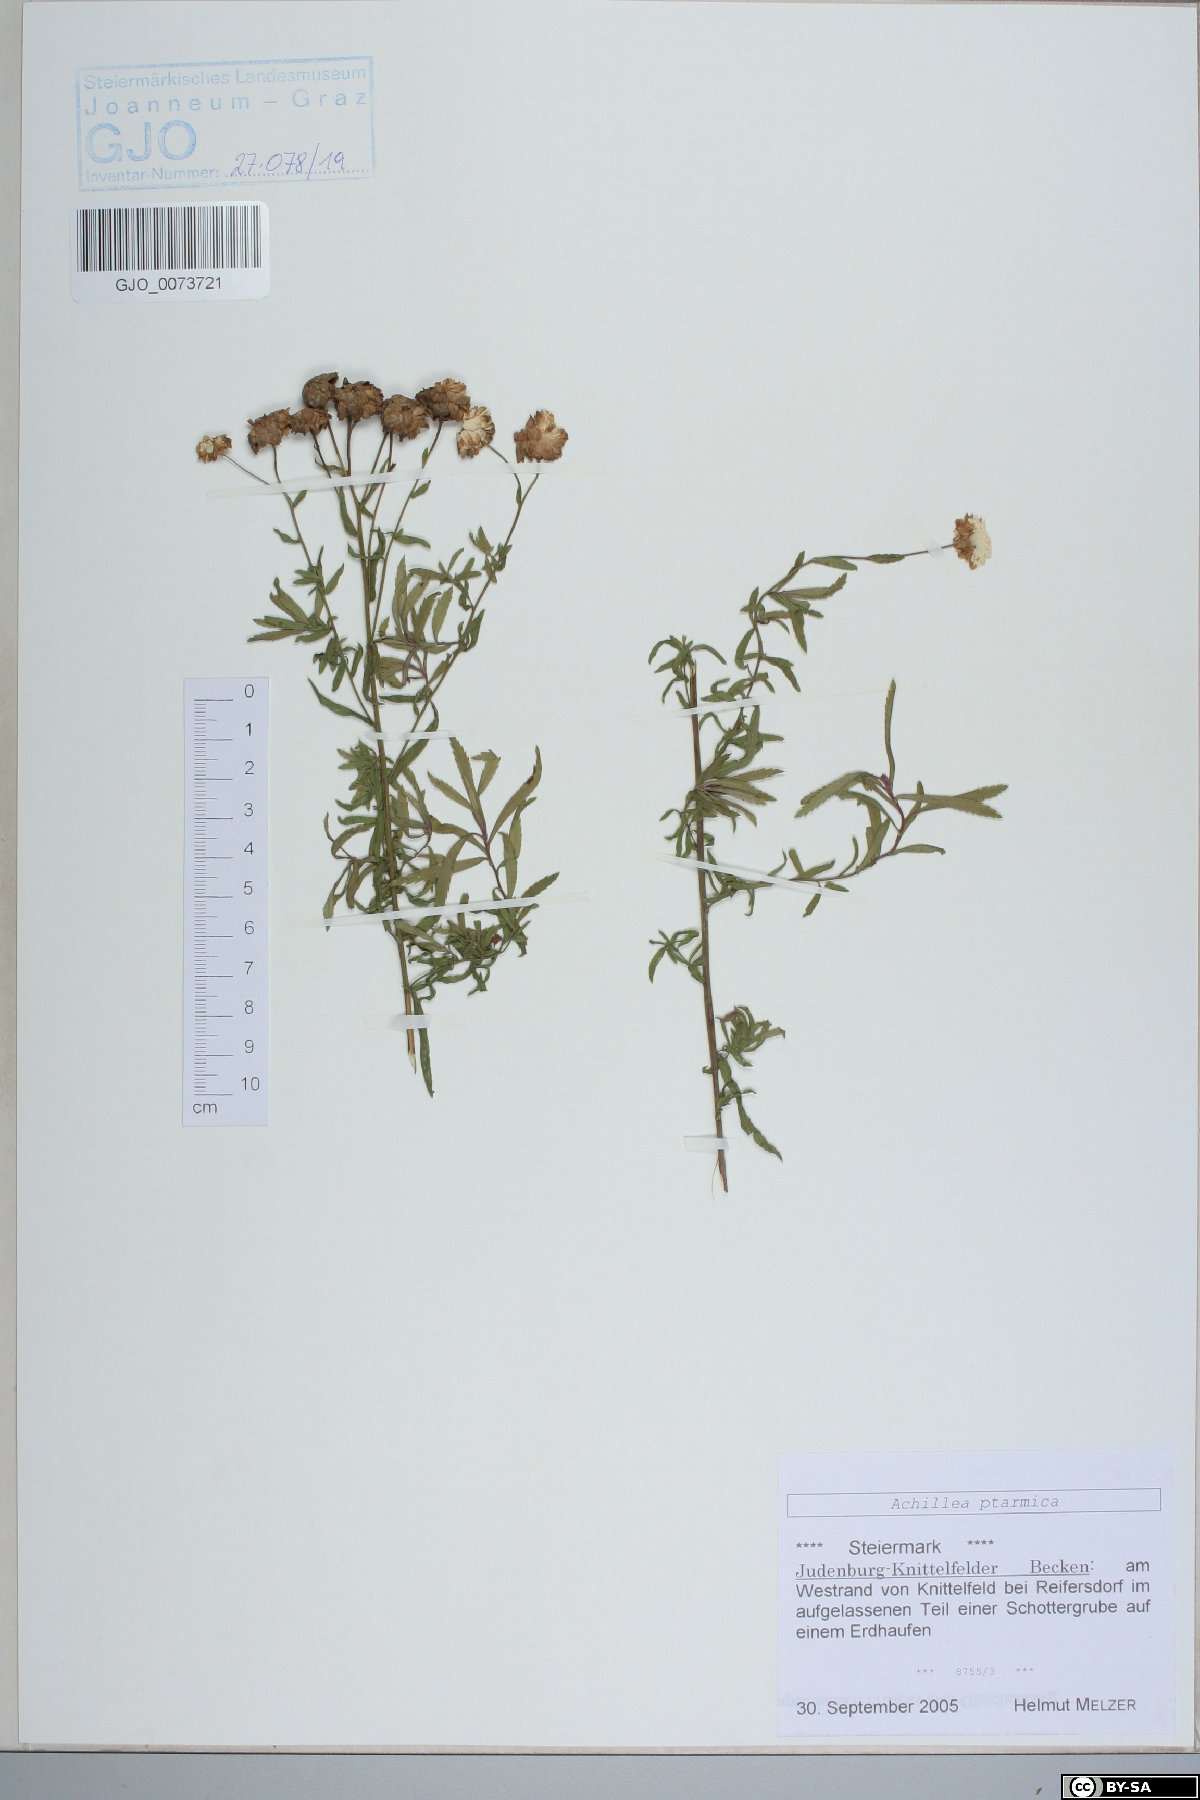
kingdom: Plantae
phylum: Tracheophyta
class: Magnoliopsida
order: Asterales
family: Asteraceae
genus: Achillea
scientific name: Achillea ptarmica
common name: Sneezeweed
